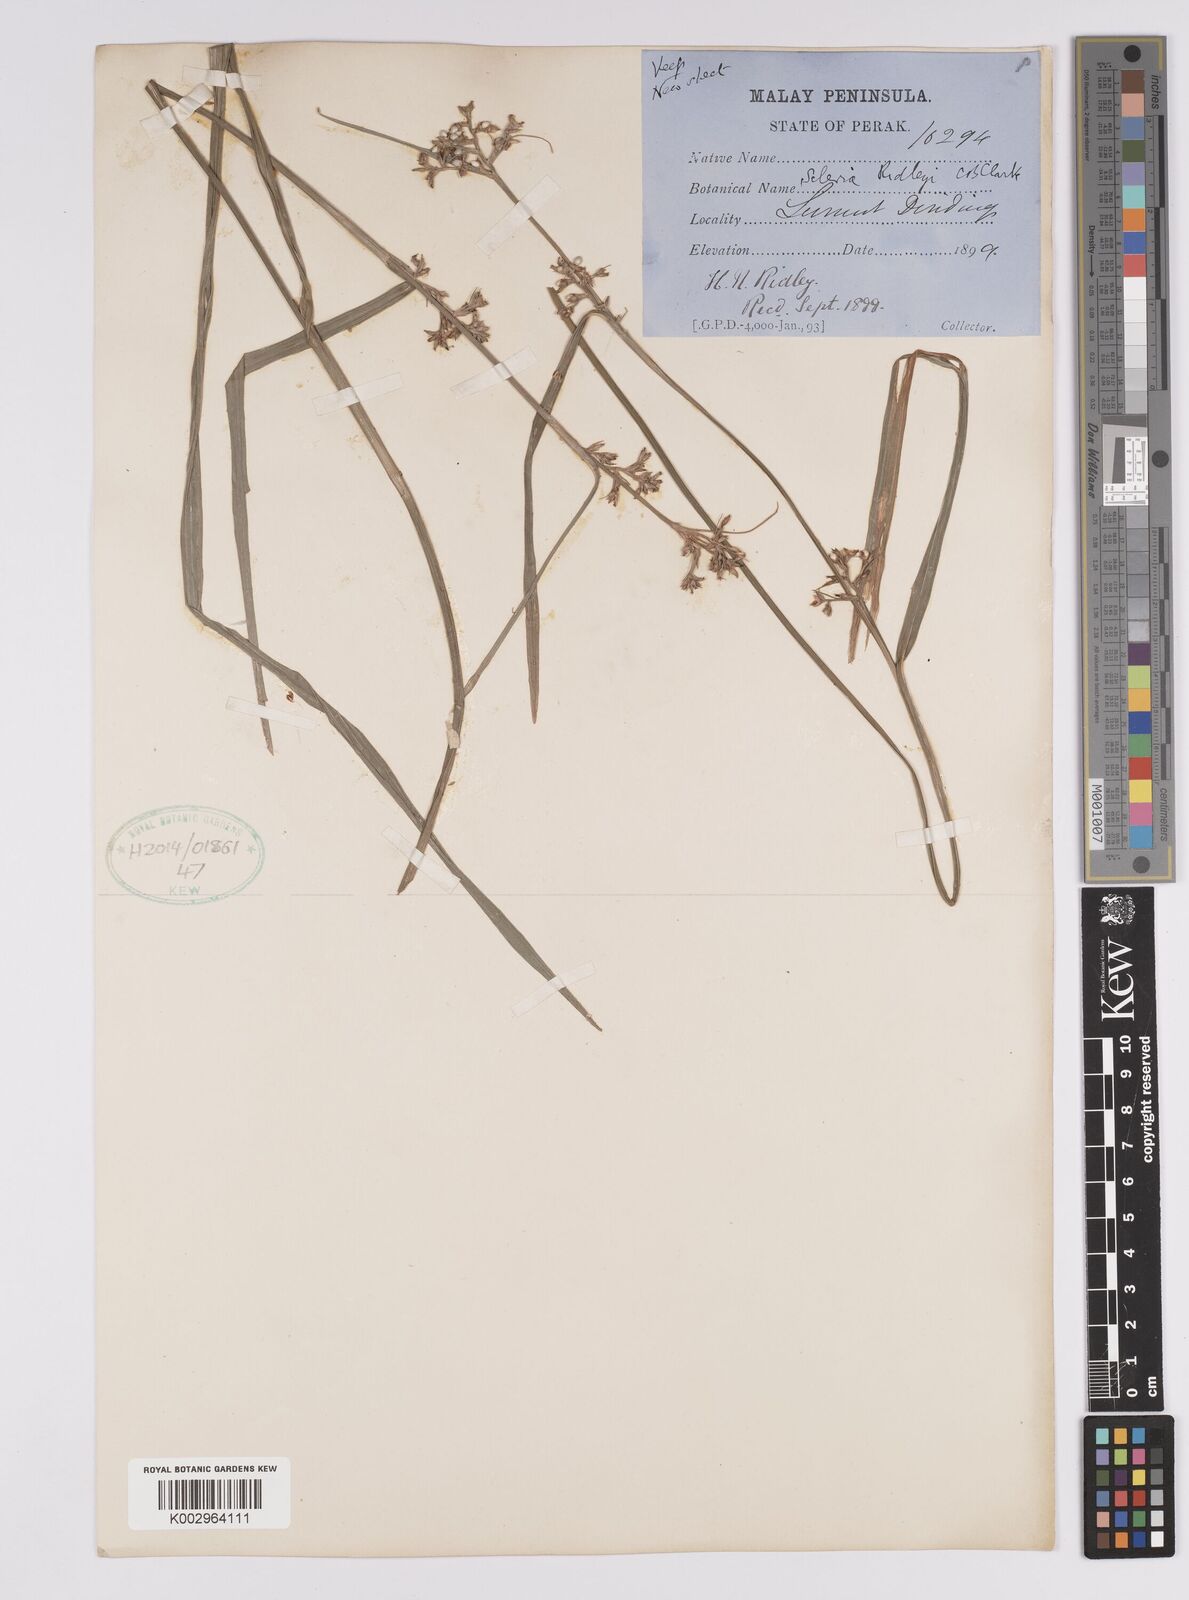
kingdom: Plantae
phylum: Tracheophyta
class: Liliopsida
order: Poales
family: Cyperaceae
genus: Scleria
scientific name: Scleria corymbosa
